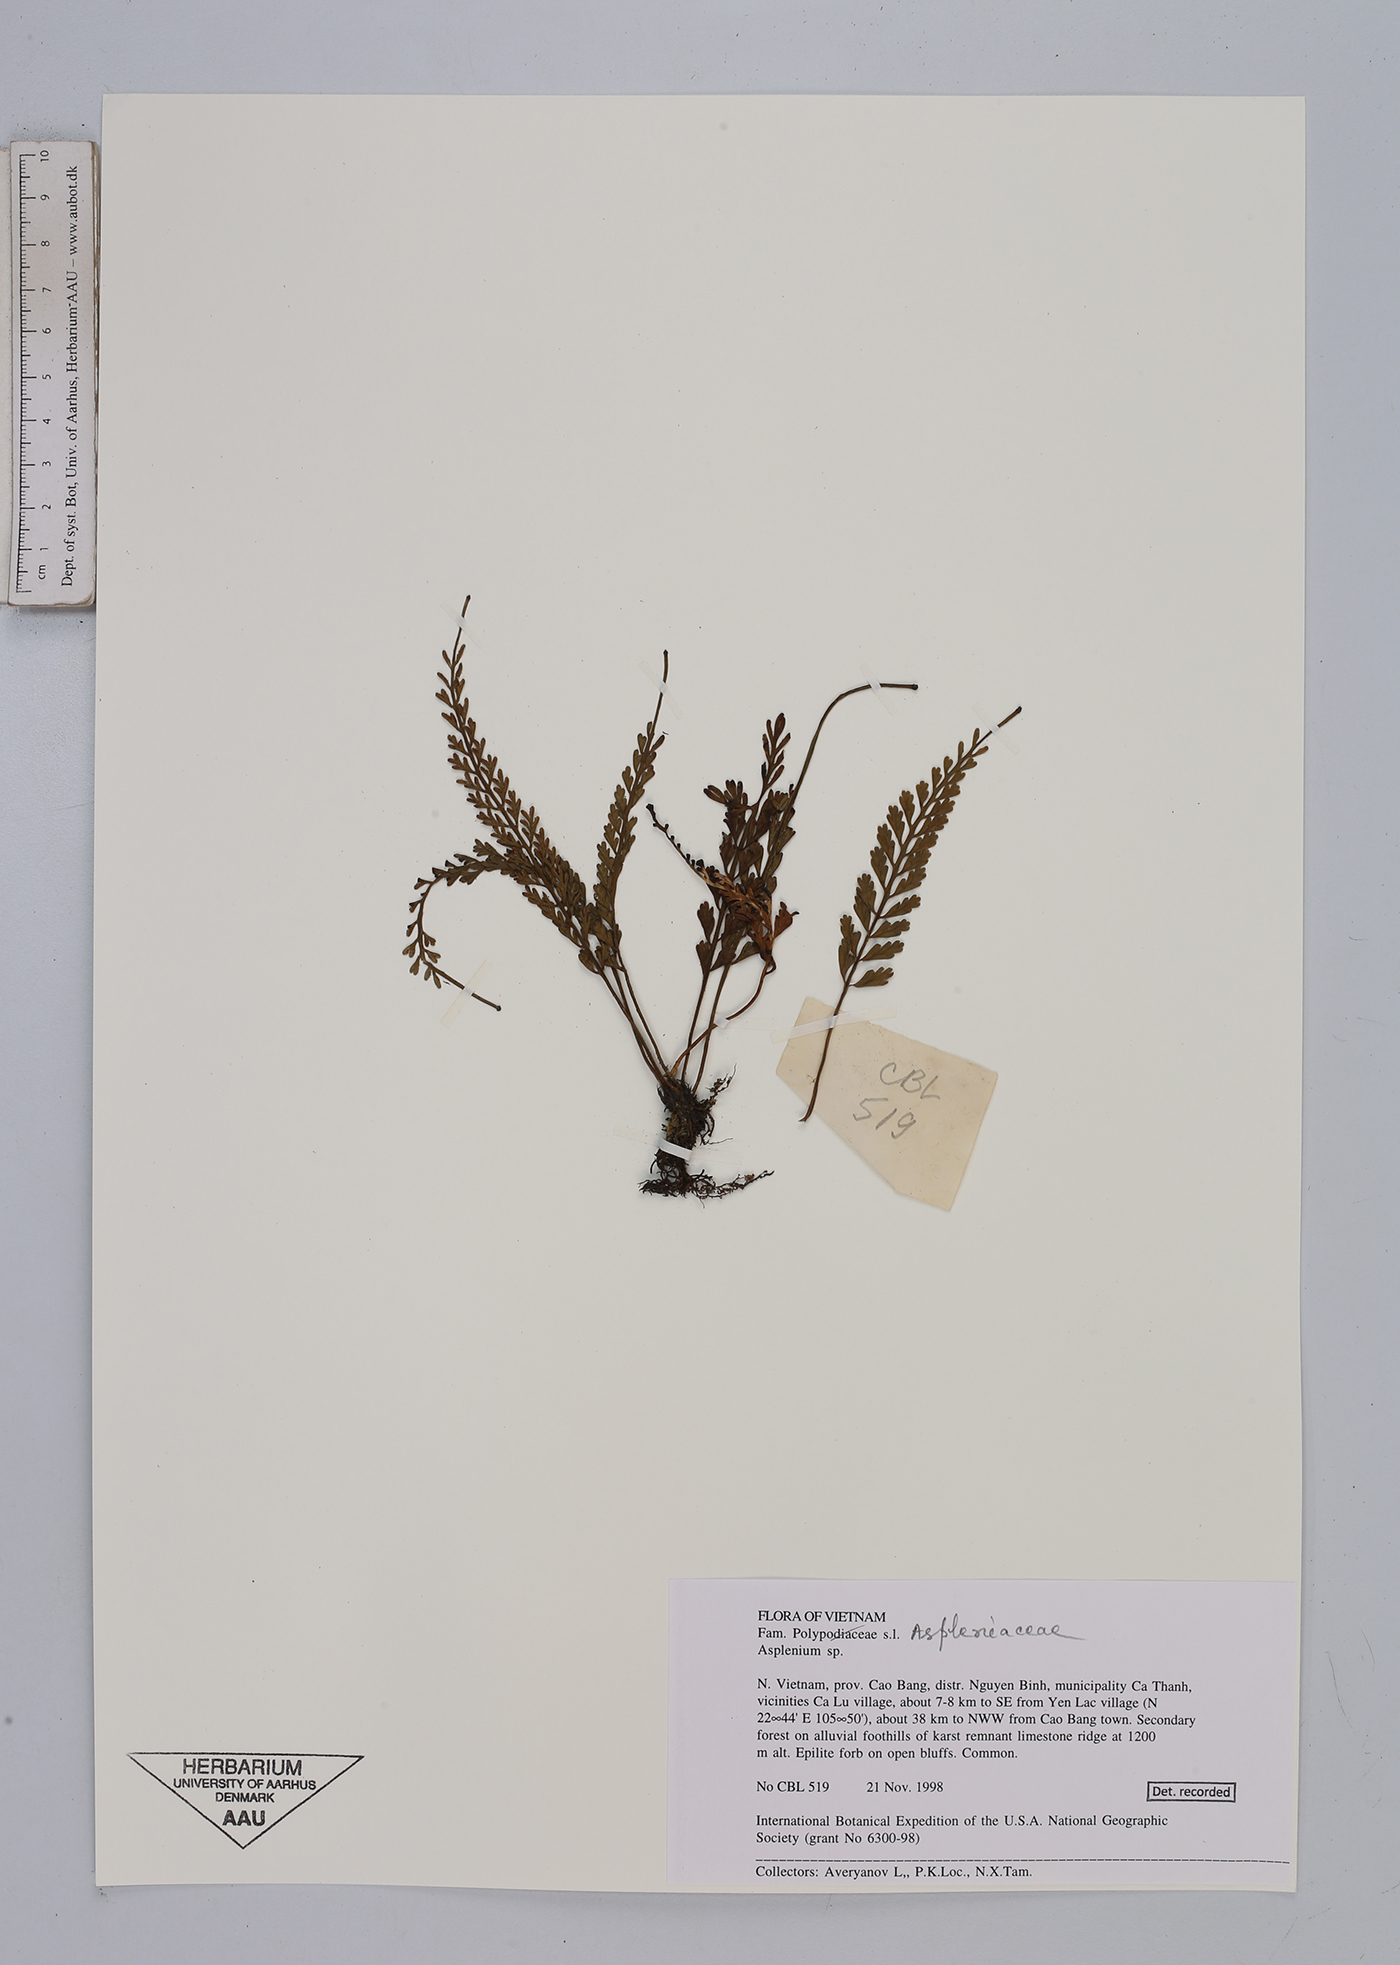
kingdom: Plantae
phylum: Tracheophyta
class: Polypodiopsida
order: Polypodiales
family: Aspleniaceae
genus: Asplenium
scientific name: Asplenium
